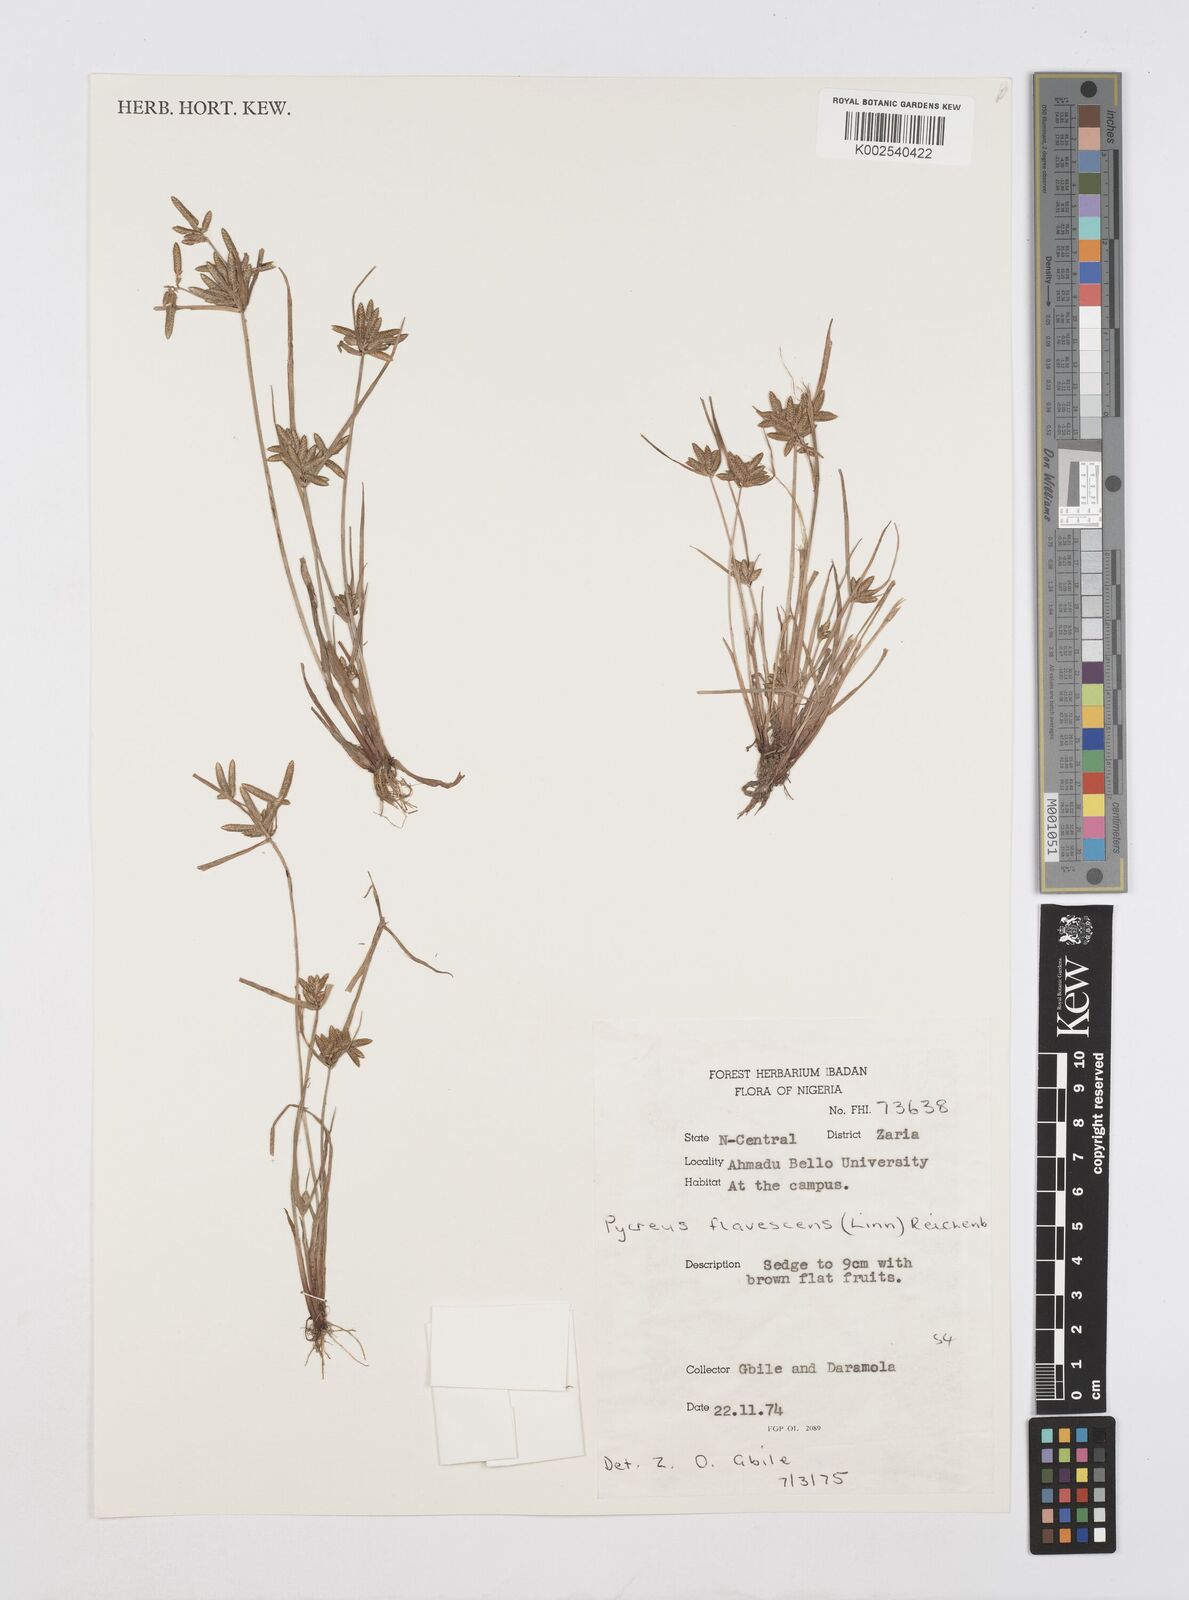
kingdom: Plantae
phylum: Tracheophyta
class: Liliopsida
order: Poales
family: Cyperaceae
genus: Cyperus
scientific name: Cyperus flavescens
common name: Yellow galingale
